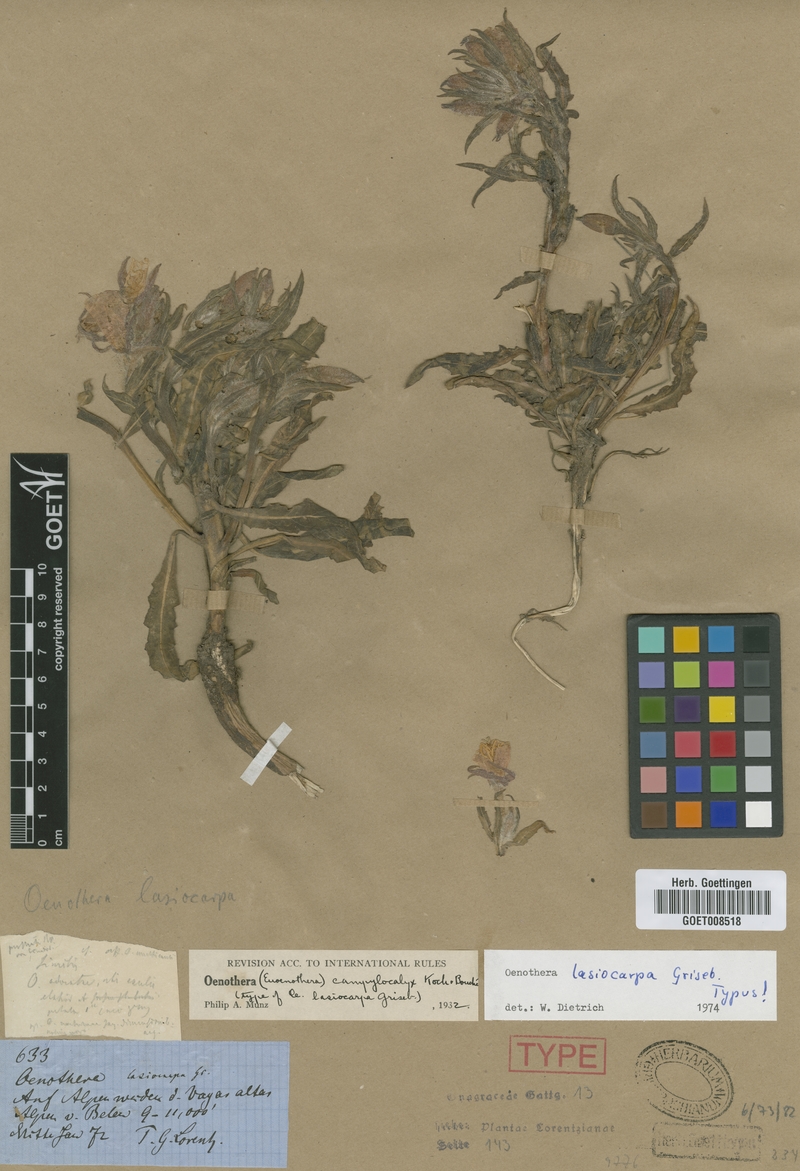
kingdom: Plantae
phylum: Tracheophyta
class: Magnoliopsida
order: Myrtales
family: Onagraceae
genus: Oenothera
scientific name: Oenothera lasiocarpa
